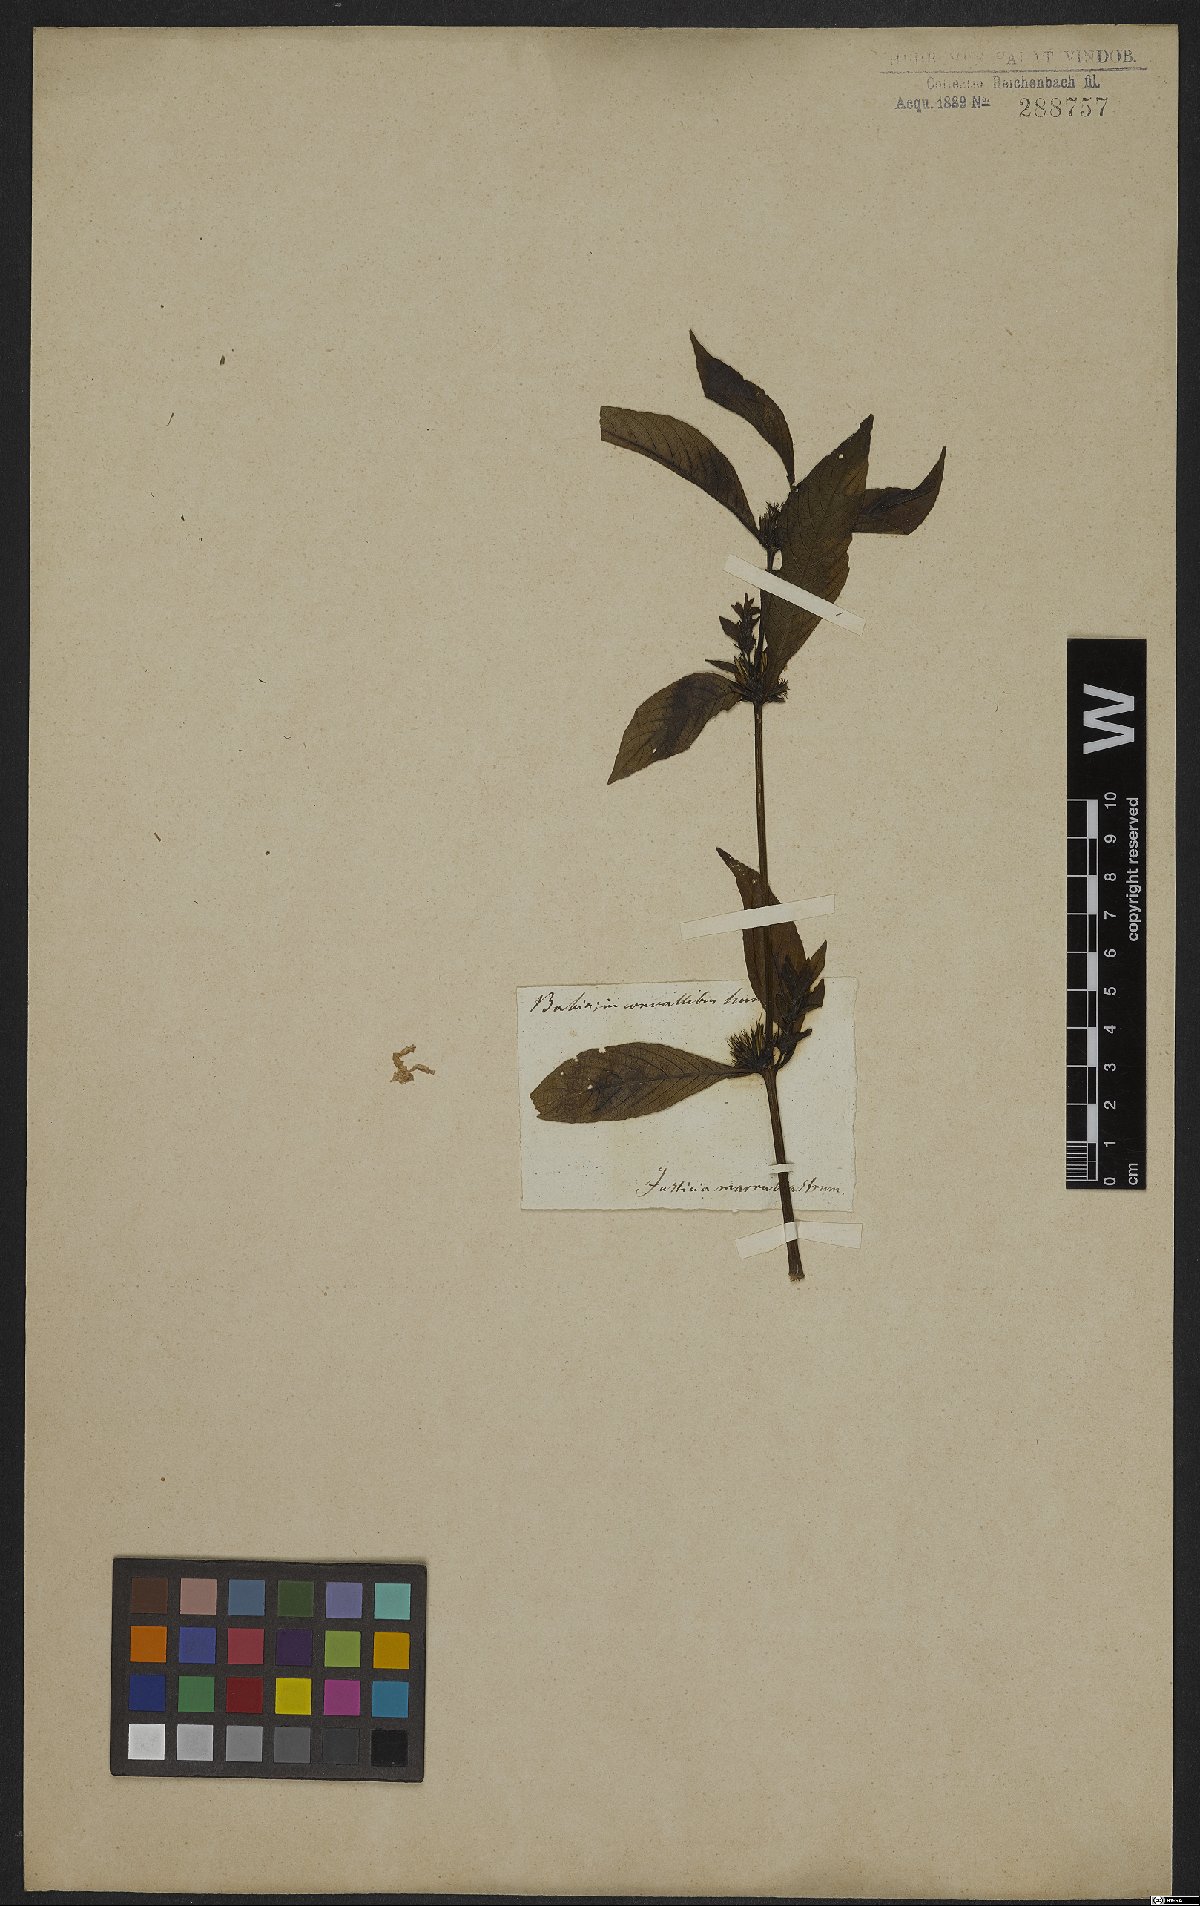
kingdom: Plantae
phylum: Tracheophyta
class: Magnoliopsida
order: Lamiales
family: Acanthaceae
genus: Hygrophila
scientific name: Hygrophila costata
